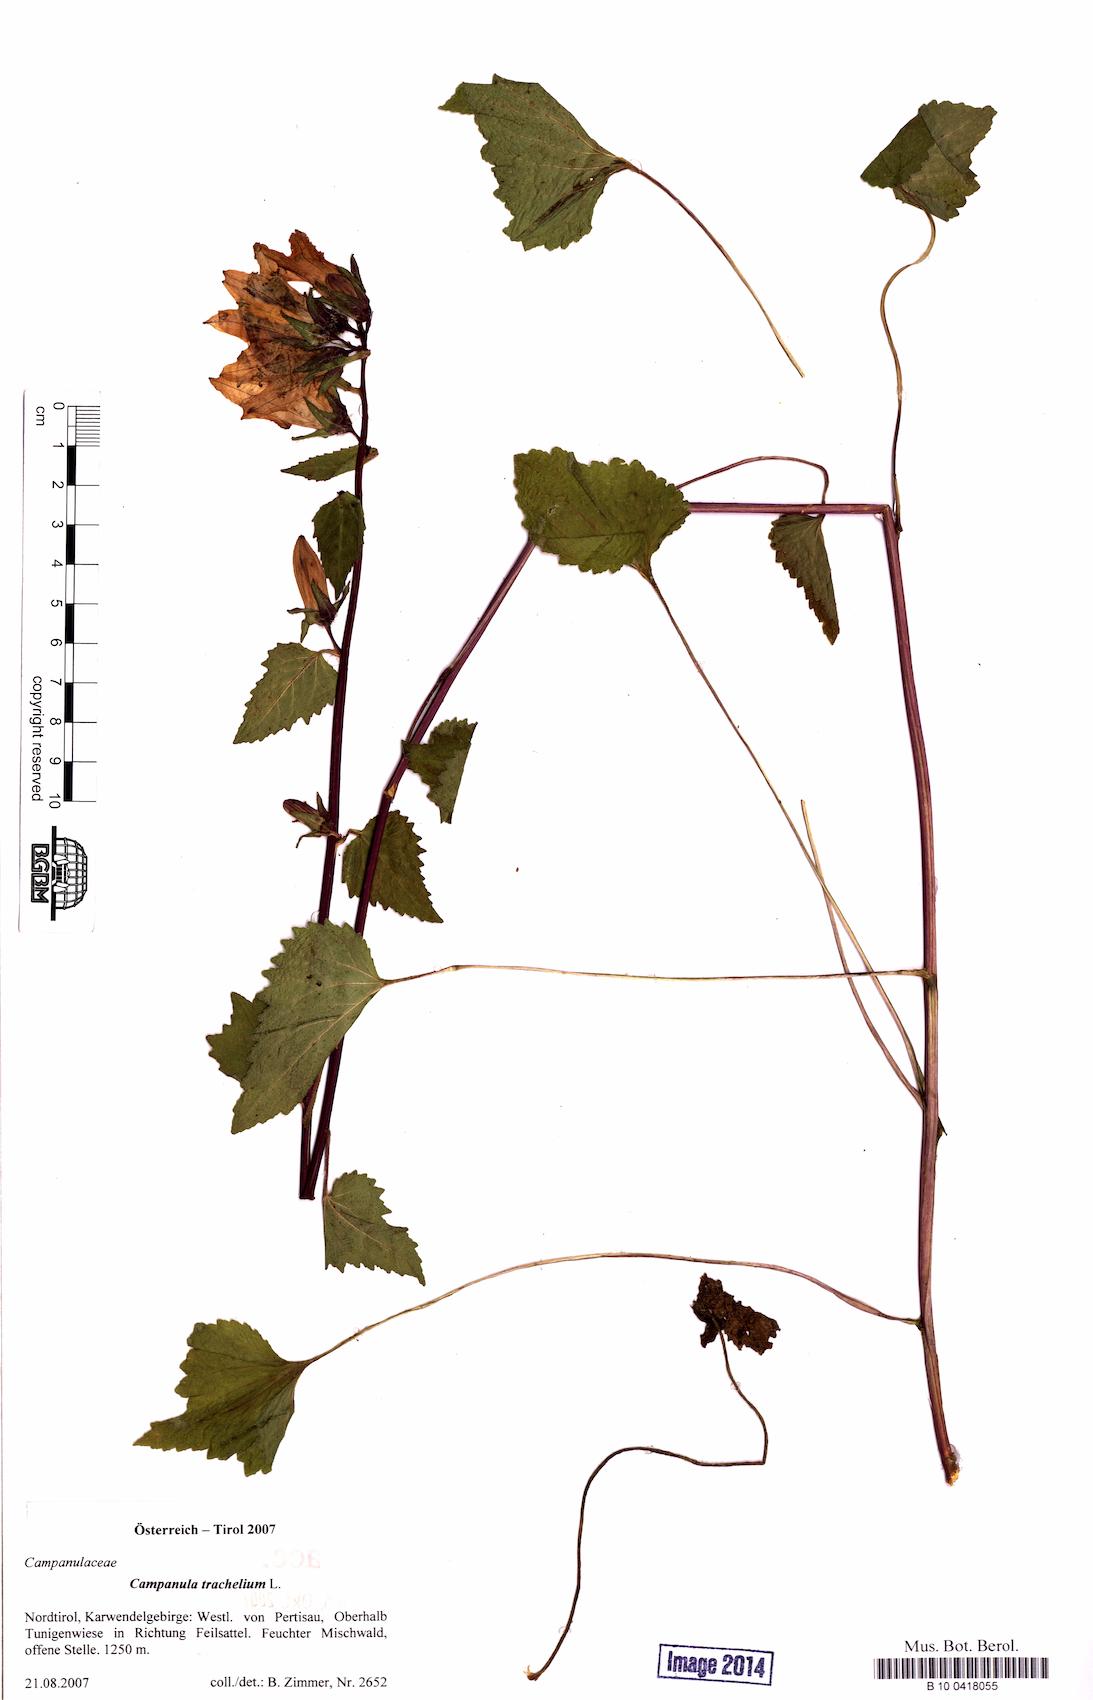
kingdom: Plantae
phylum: Tracheophyta
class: Magnoliopsida
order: Asterales
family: Campanulaceae
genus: Campanula
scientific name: Campanula trachelium
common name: Nettle-leaved bellflower
